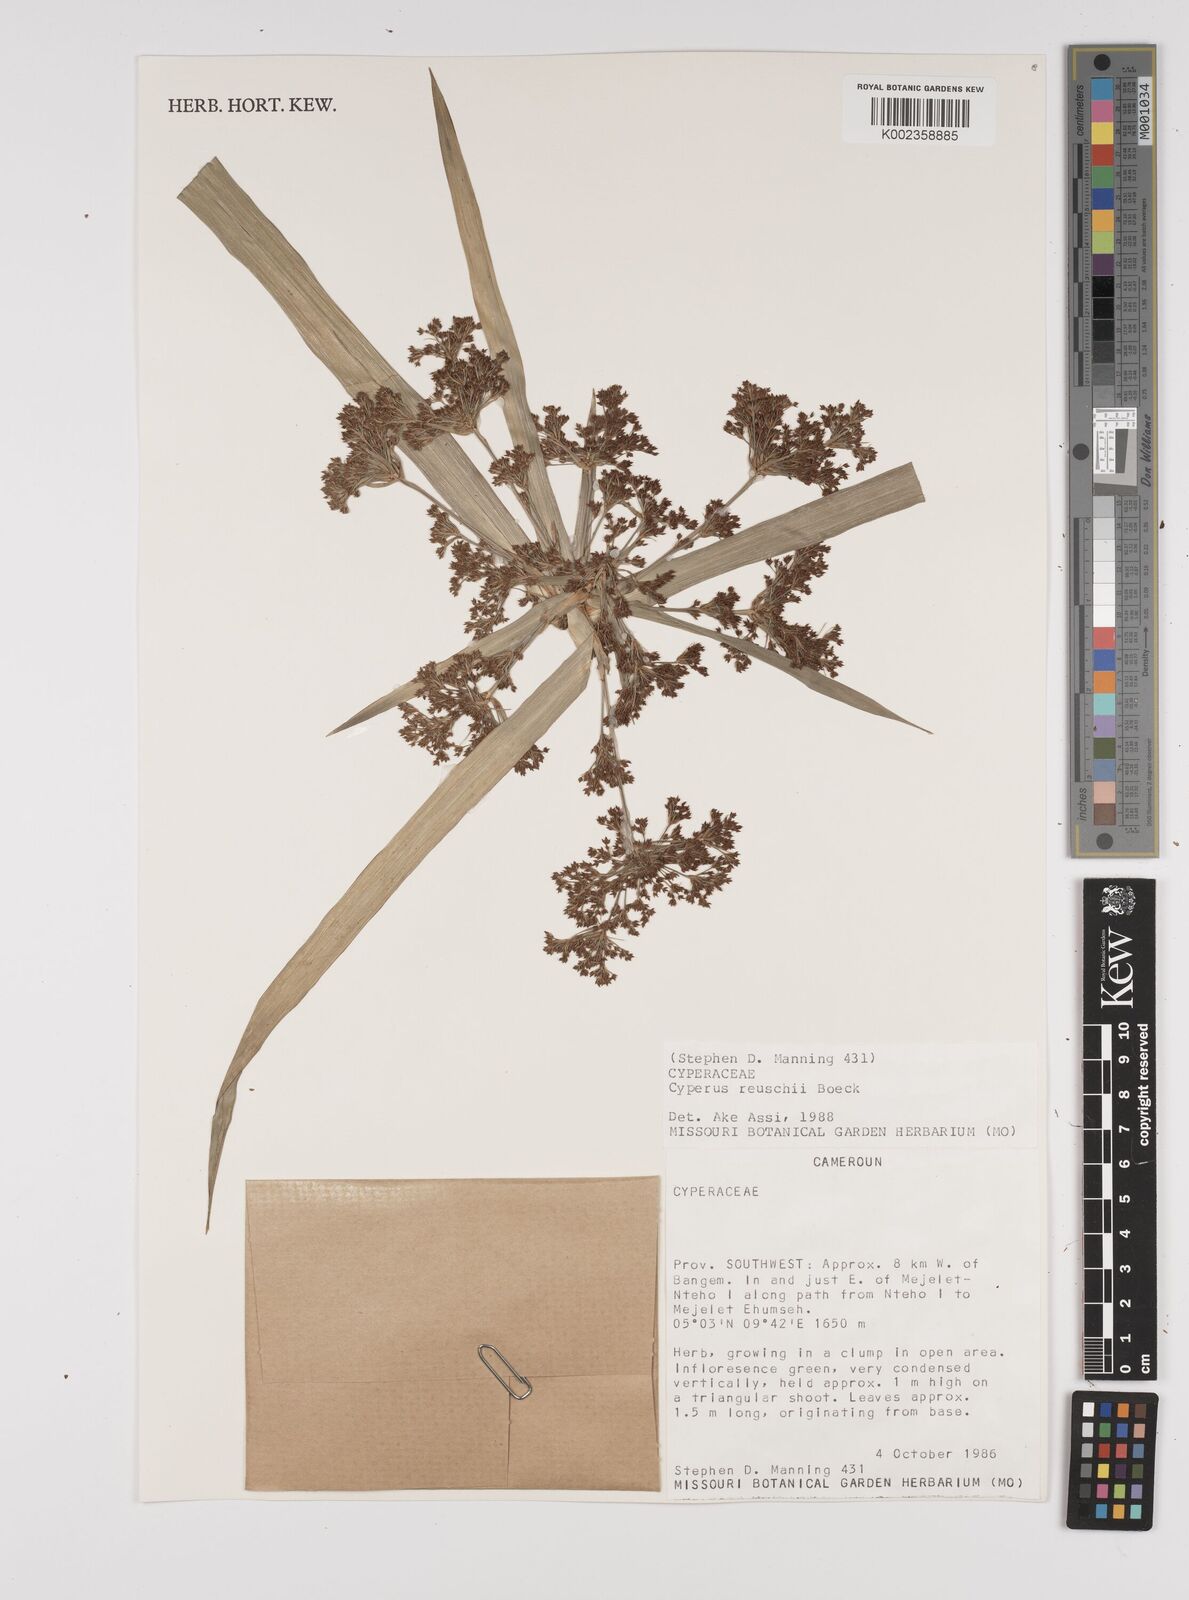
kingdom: Plantae
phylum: Tracheophyta
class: Liliopsida
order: Poales
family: Cyperaceae
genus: Cyperus
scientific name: Cyperus renschii
